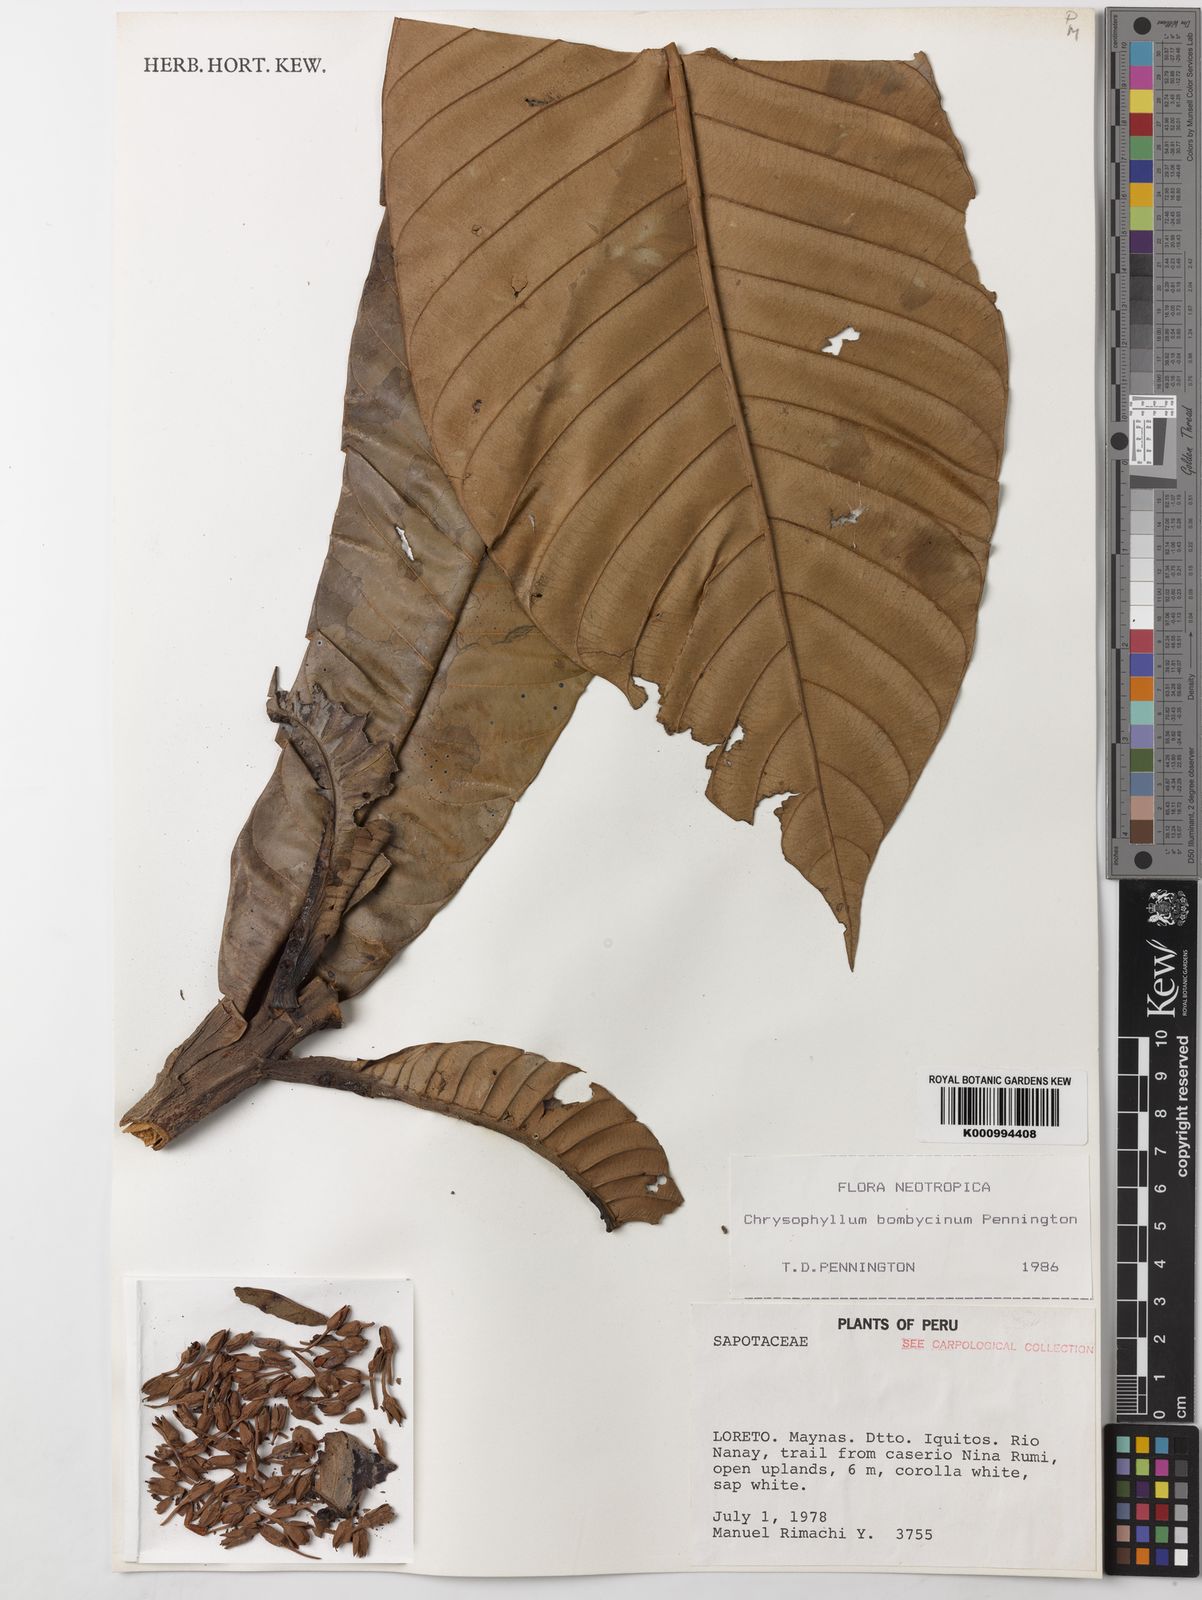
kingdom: Plantae
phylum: Tracheophyta
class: Magnoliopsida
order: Ericales
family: Sapotaceae
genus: Chrysophyllum
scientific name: Chrysophyllum bombycinum
